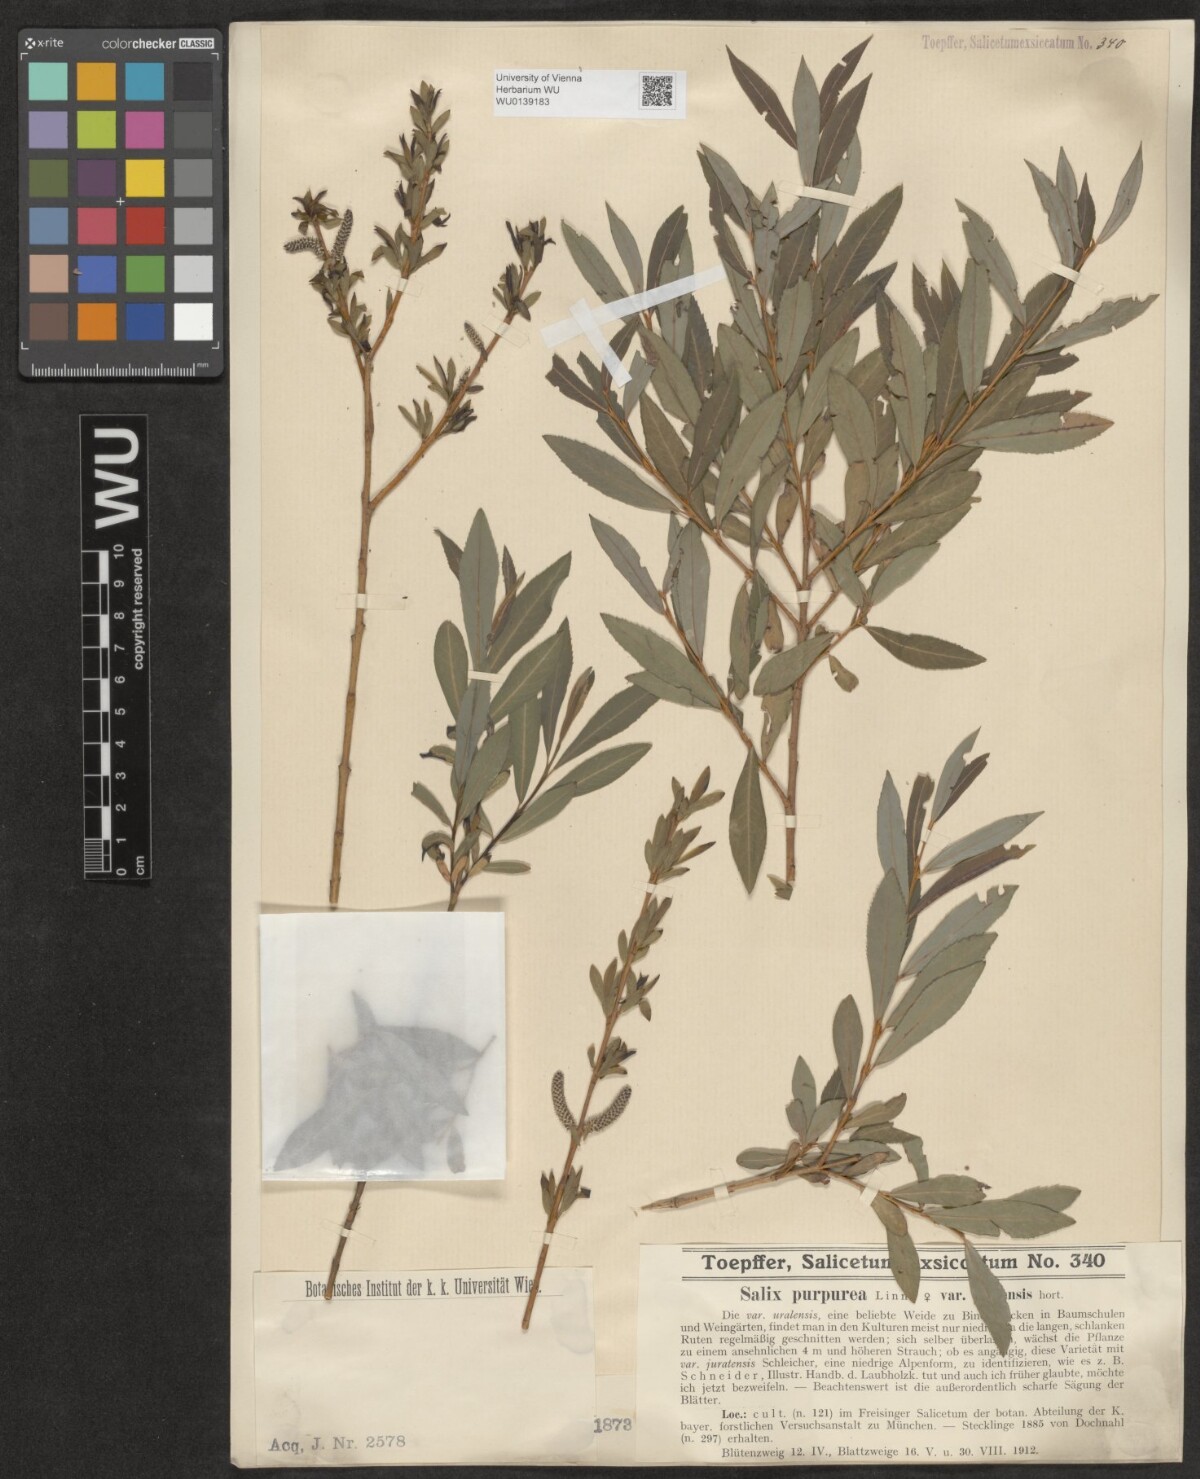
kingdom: Plantae
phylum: Tracheophyta
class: Magnoliopsida
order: Malpighiales
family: Salicaceae
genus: Salix
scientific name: Salix purpurea
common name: Purple willow
